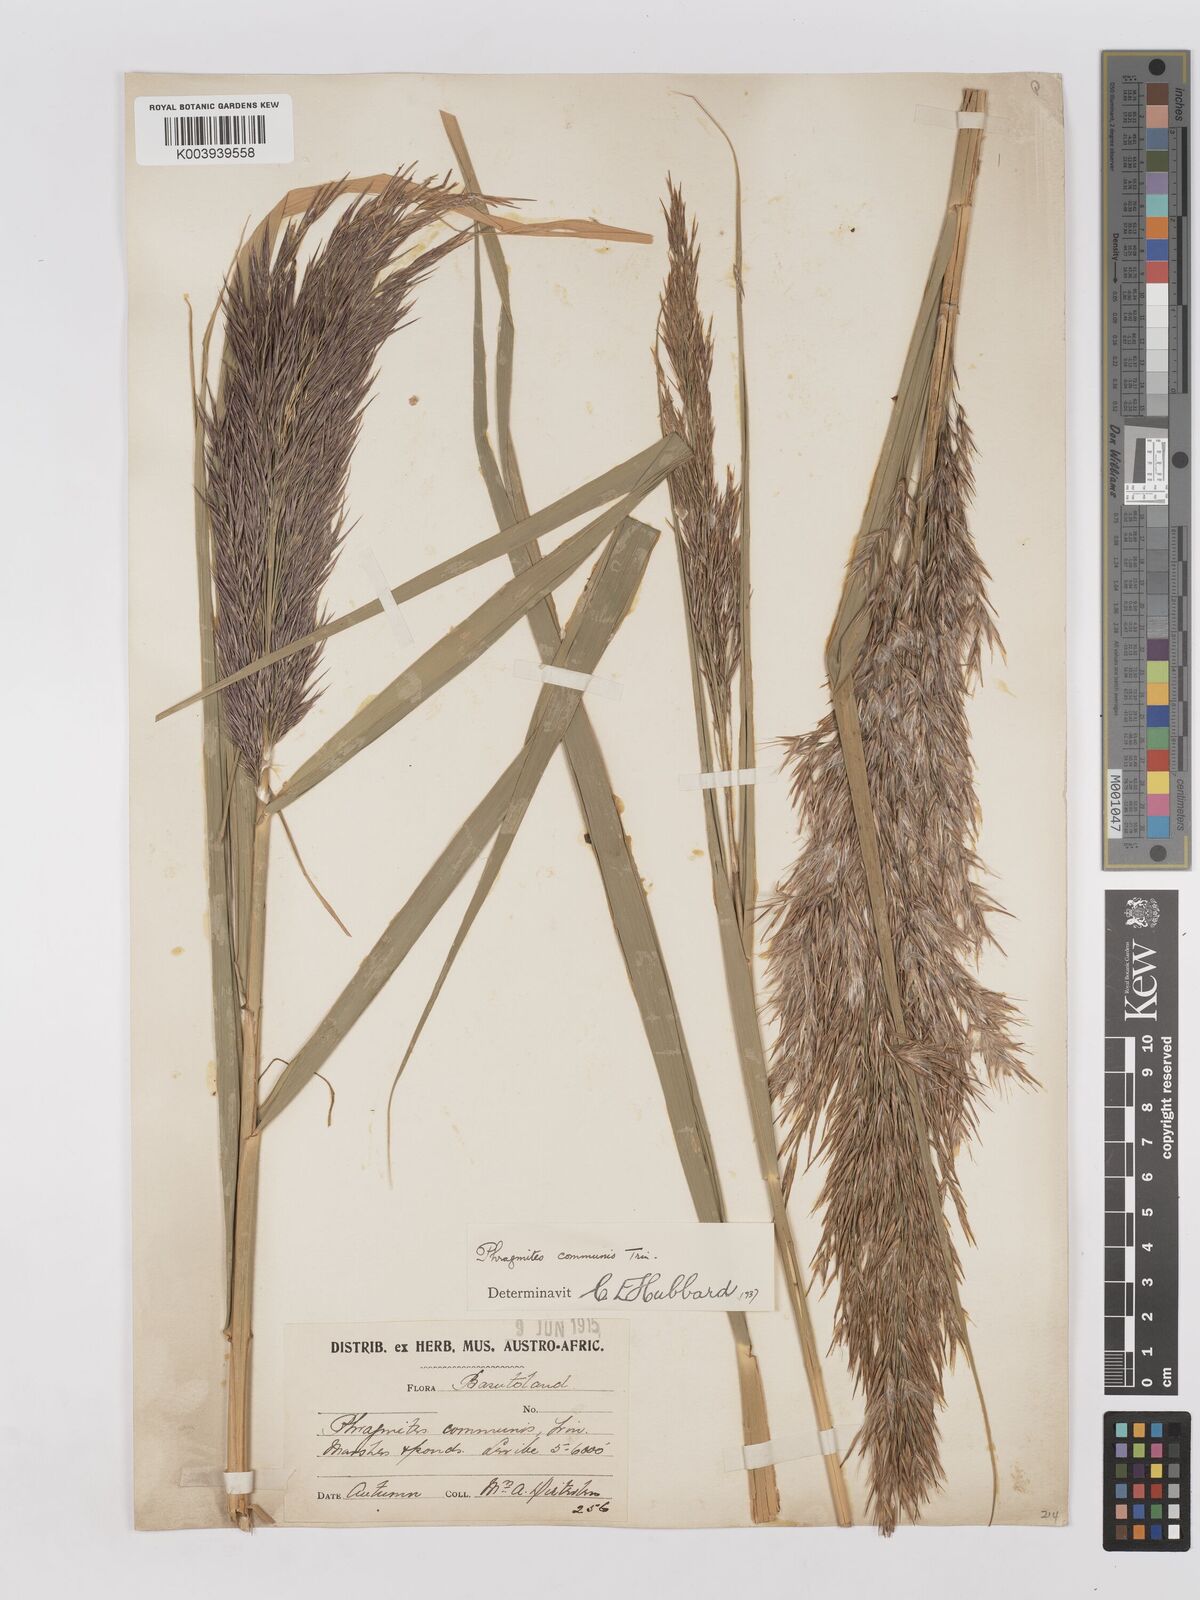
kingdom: Plantae
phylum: Tracheophyta
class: Liliopsida
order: Poales
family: Poaceae
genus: Phragmites
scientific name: Phragmites australis
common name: Common reed
